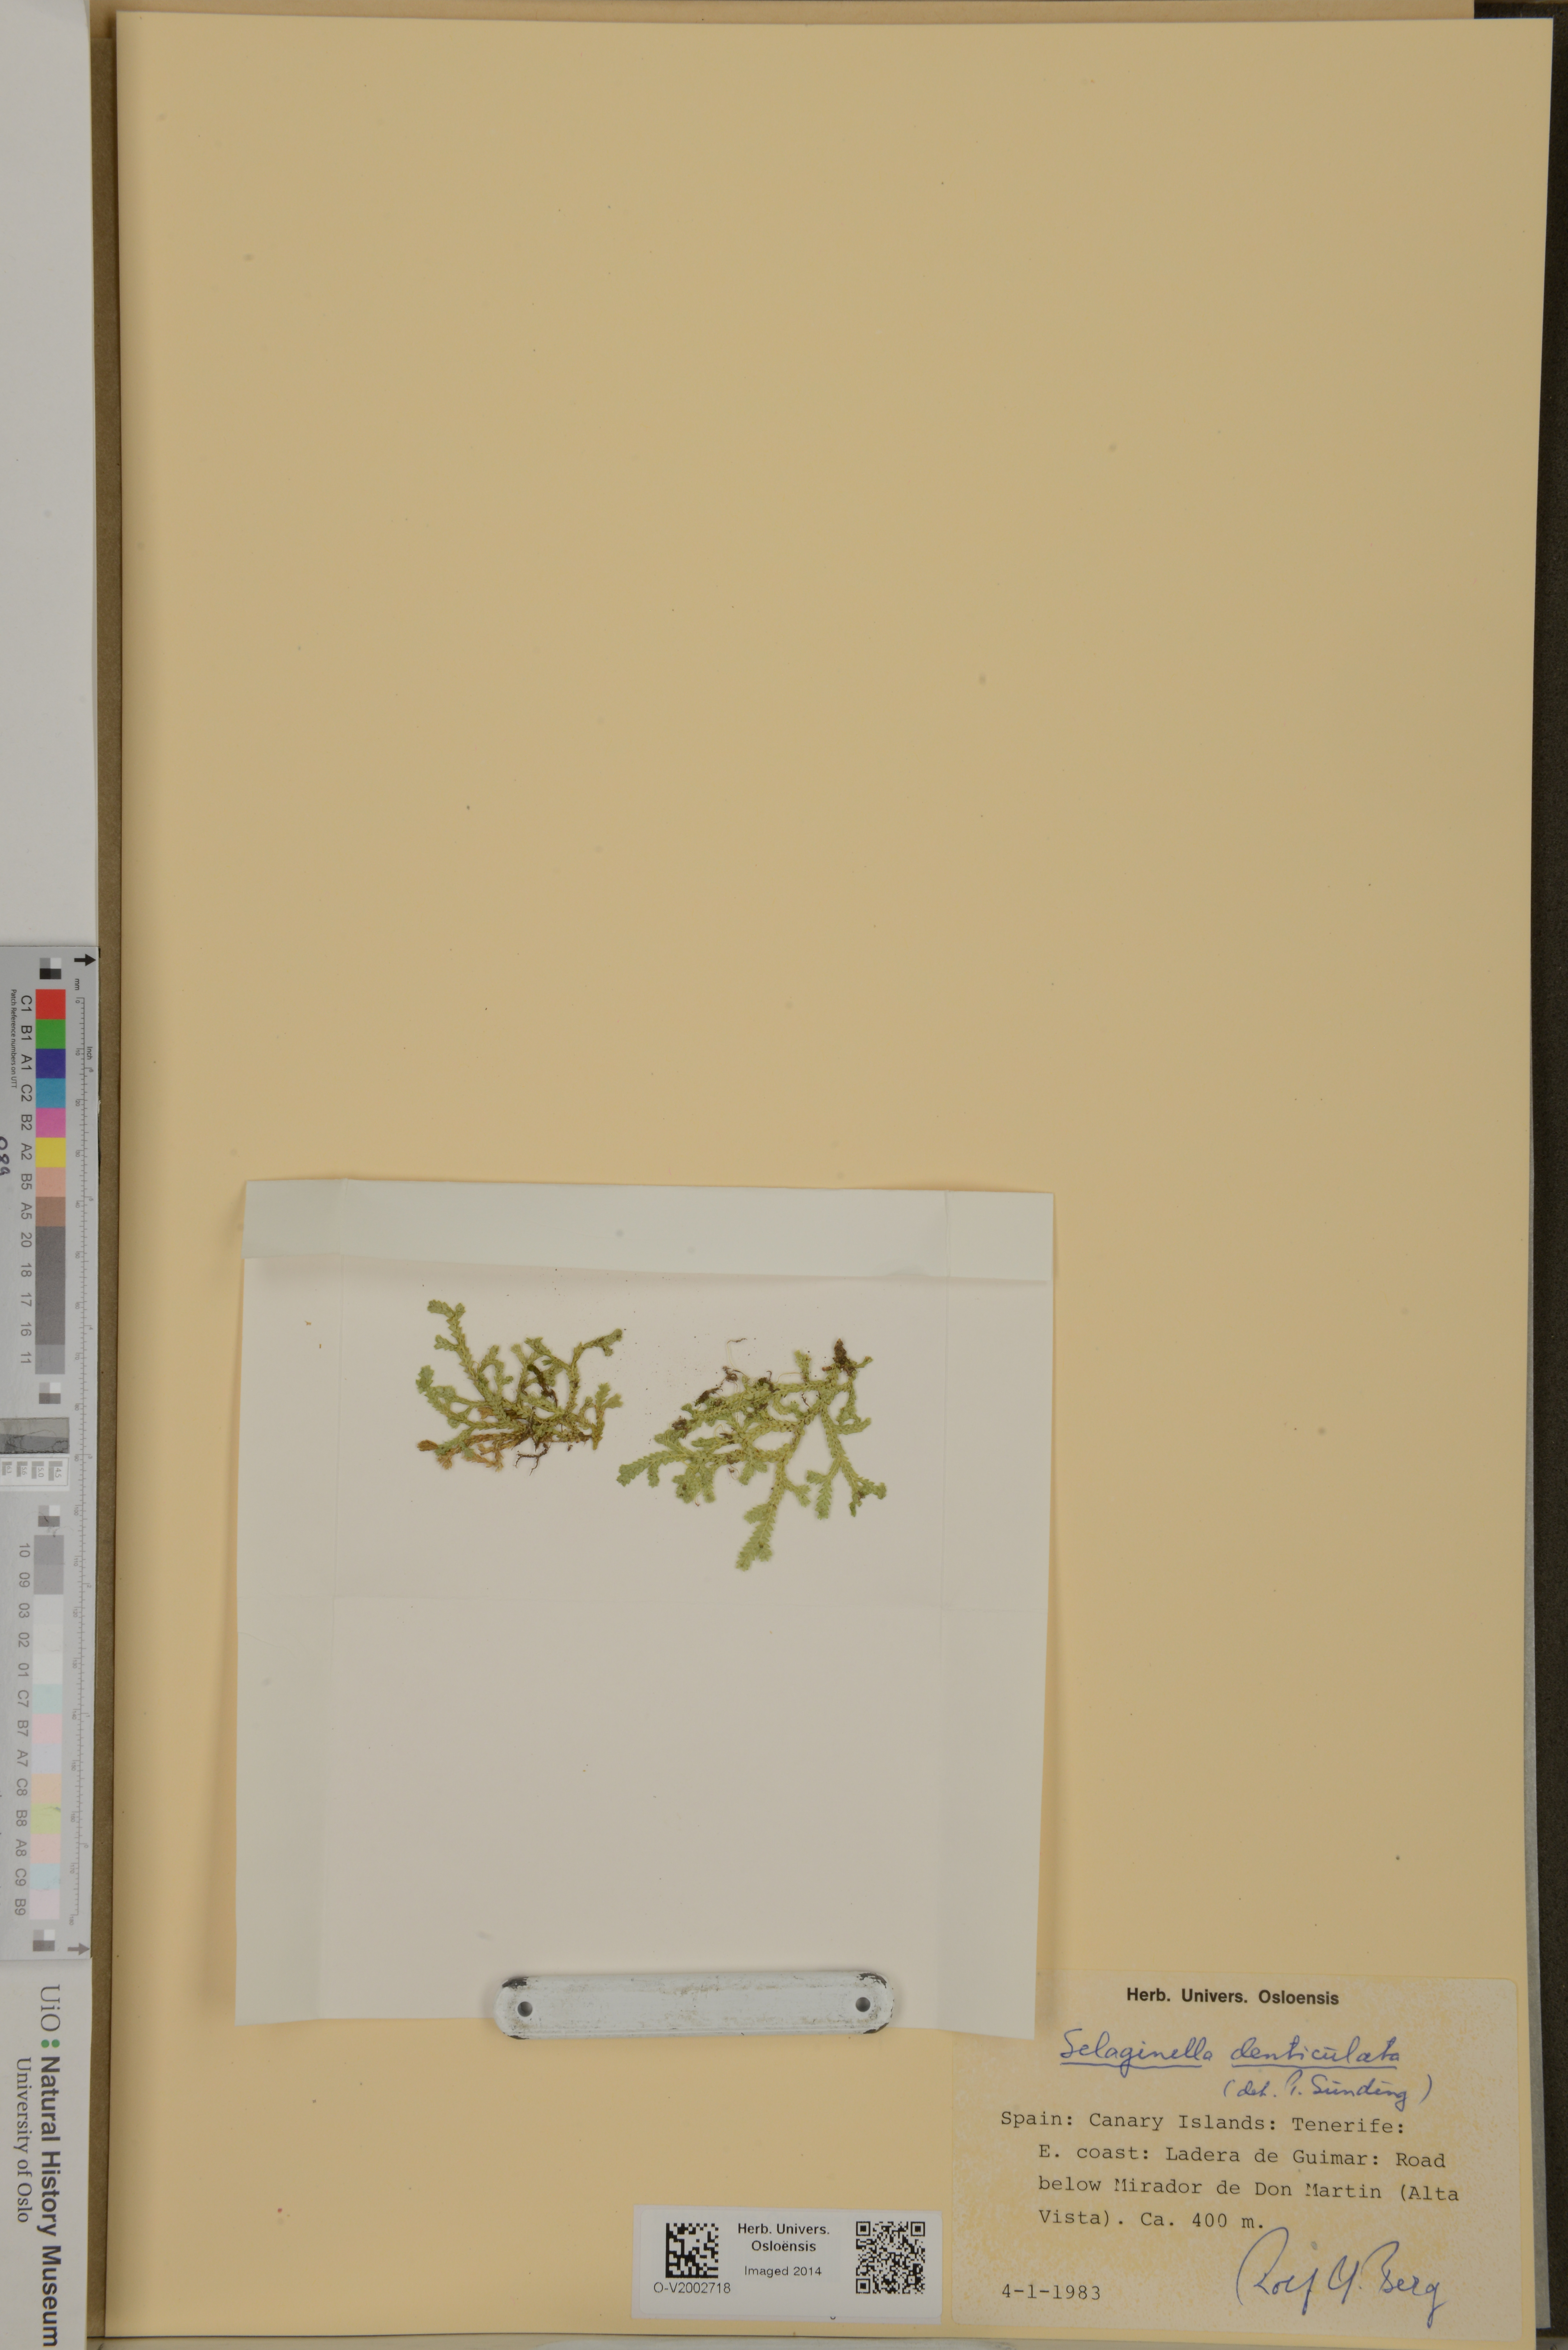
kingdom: Plantae
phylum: Tracheophyta
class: Lycopodiopsida
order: Selaginellales
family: Selaginellaceae
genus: Selaginella
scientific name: Selaginella denticulata
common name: Toothed-leaved clubmoss
